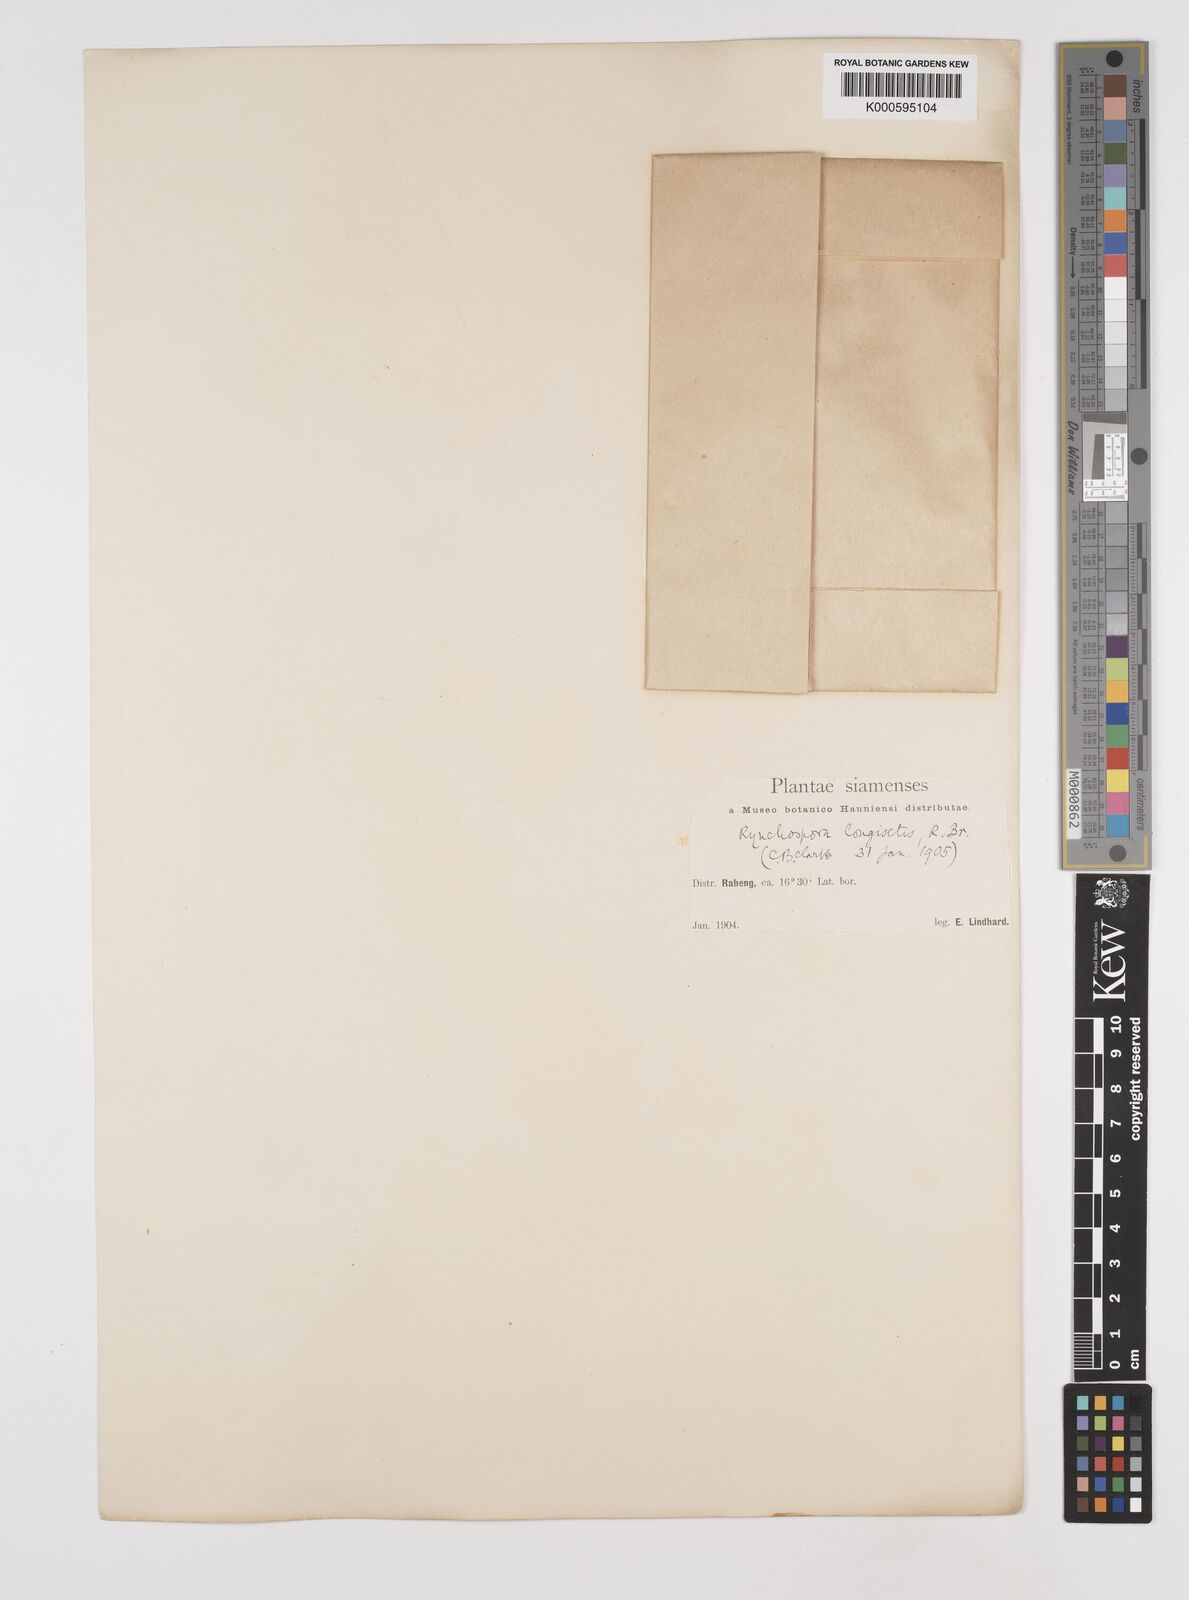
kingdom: Plantae
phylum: Tracheophyta
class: Liliopsida
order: Poales
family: Cyperaceae
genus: Rhynchospora
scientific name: Rhynchospora longisetis
